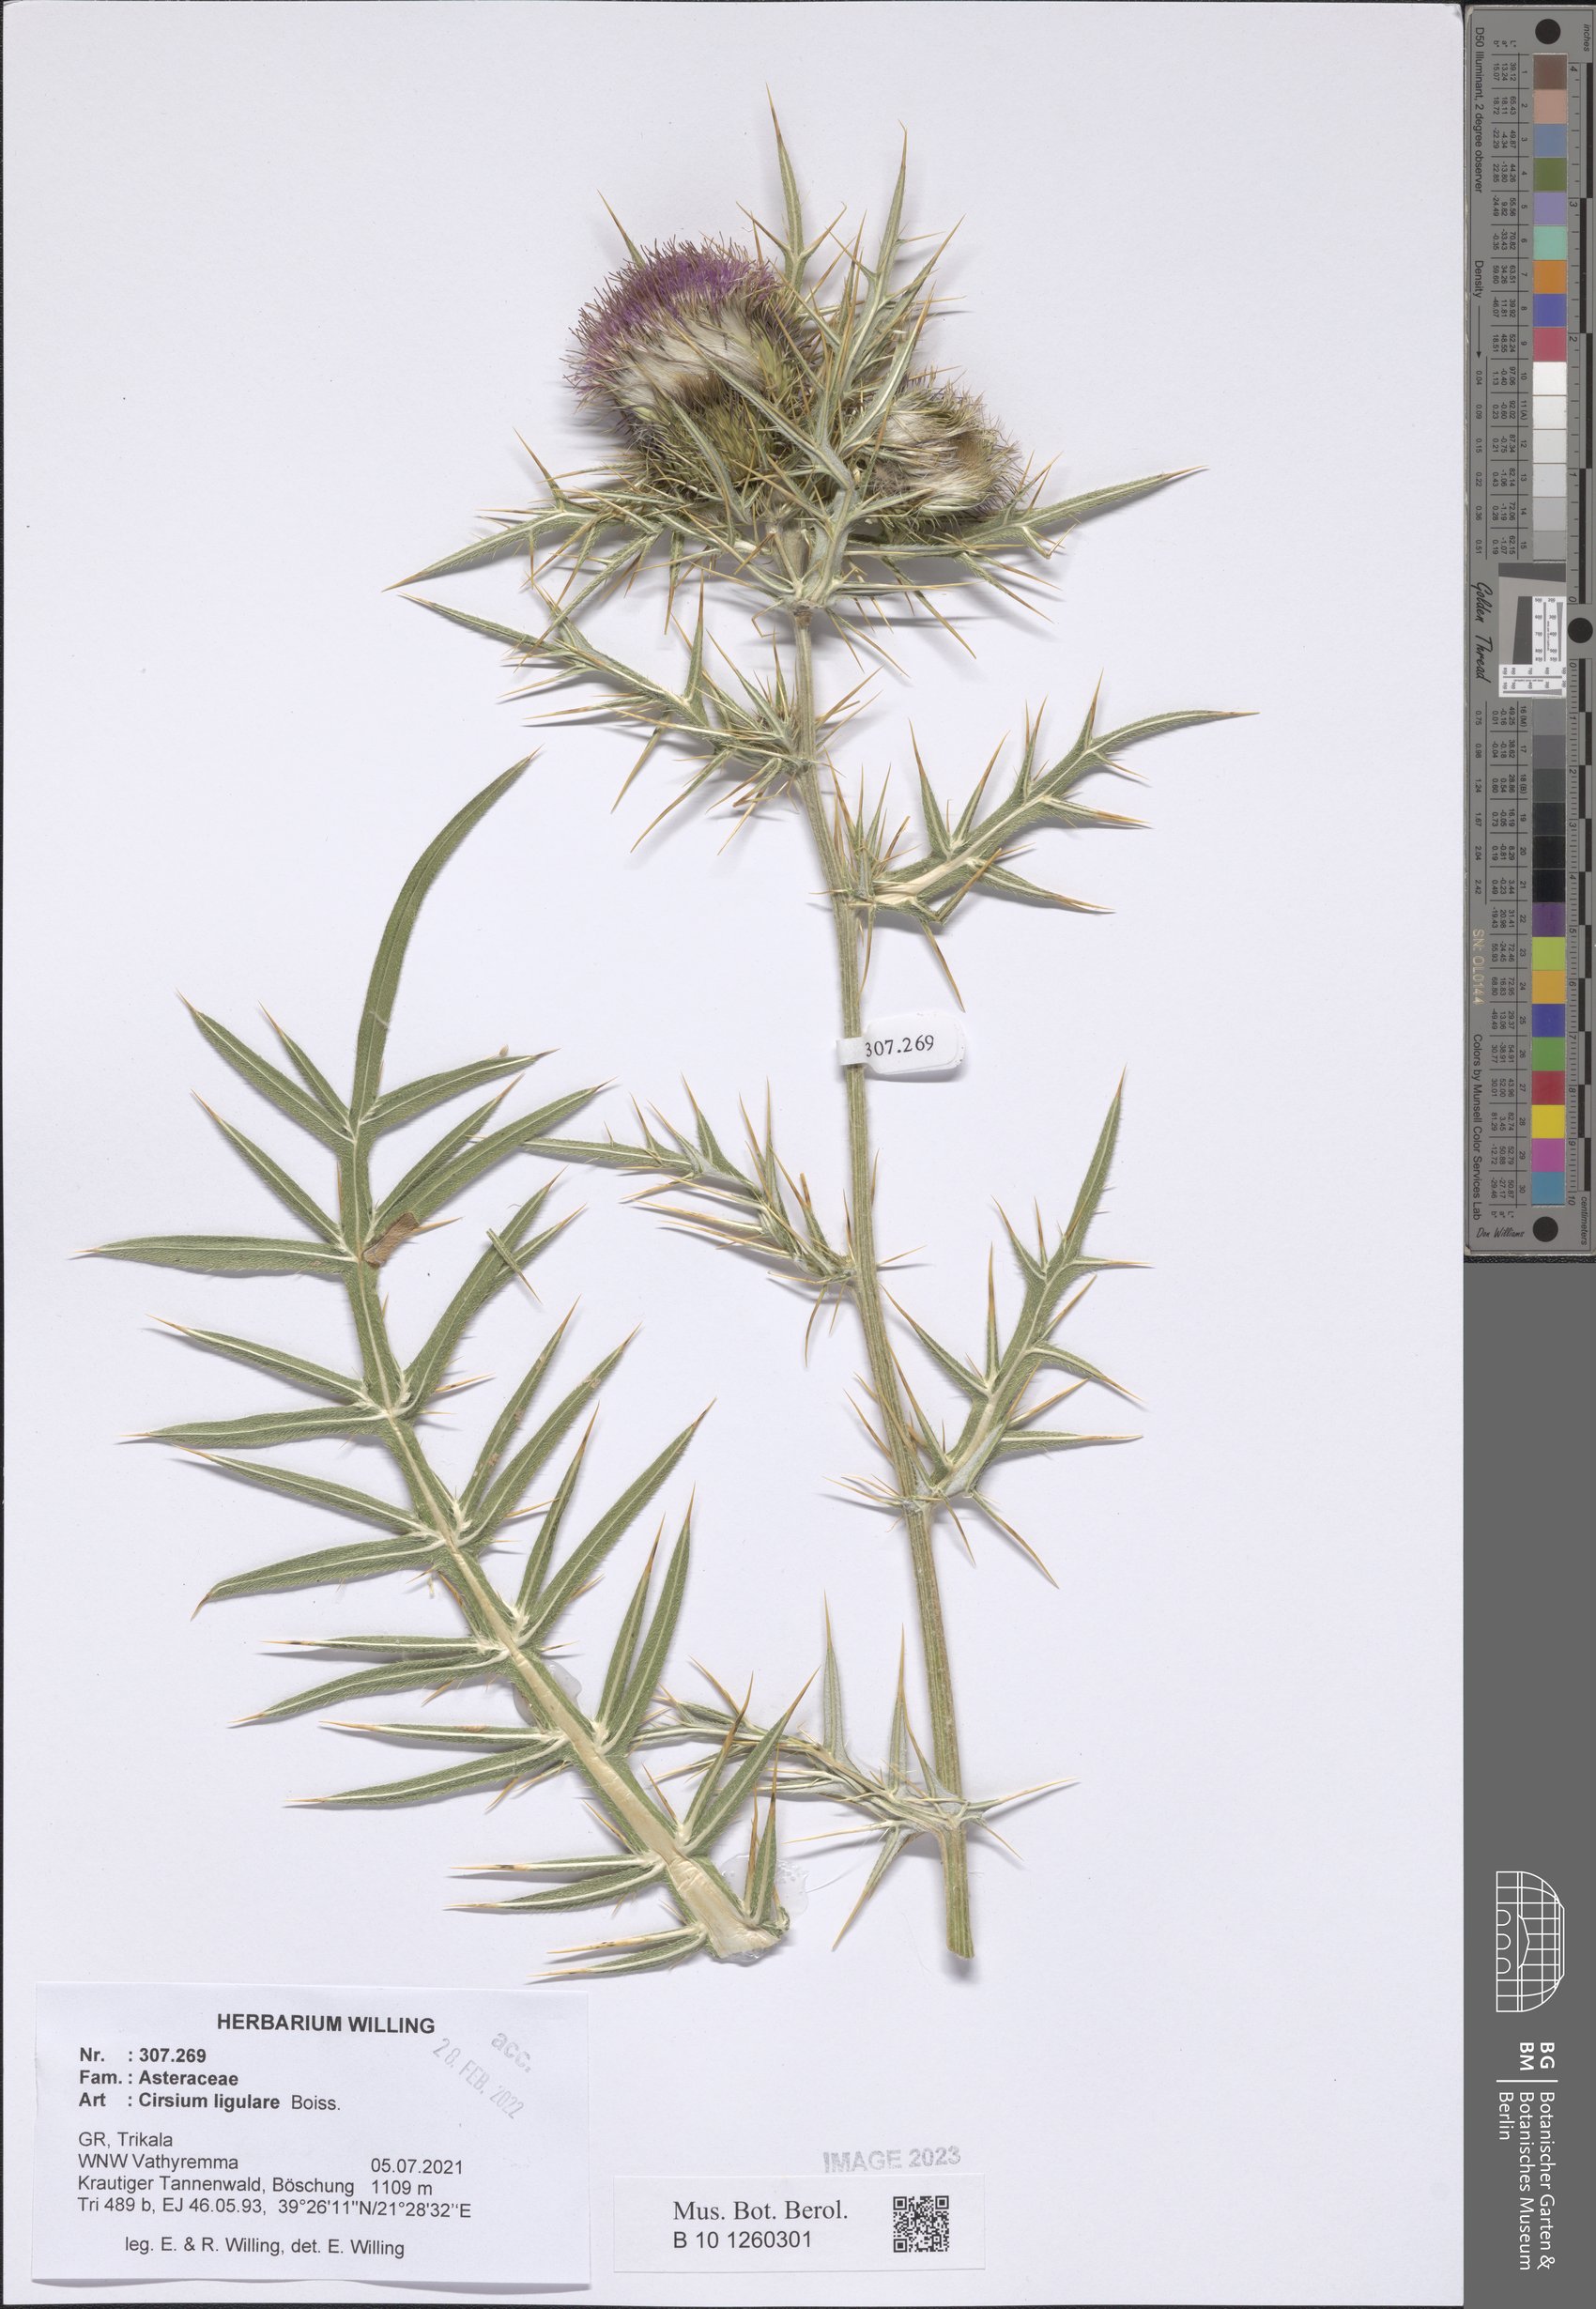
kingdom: Plantae
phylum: Tracheophyta
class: Magnoliopsida
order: Asterales
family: Asteraceae
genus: Lophiolepis
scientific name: Lophiolepis ligularis
